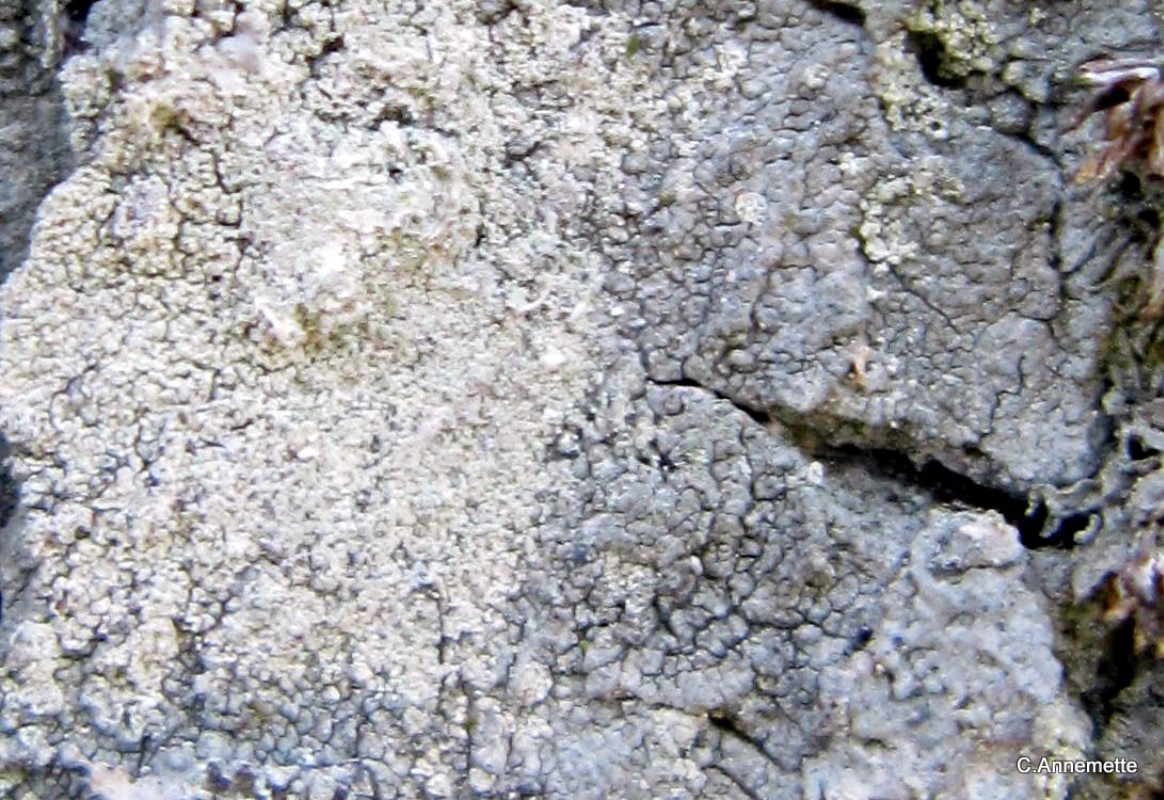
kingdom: Fungi
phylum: Ascomycota
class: Lecanoromycetes
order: Pertusariales
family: Pertusariaceae
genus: Lepra
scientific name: Lepra albescens
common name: hvidmelet prikvortelav
